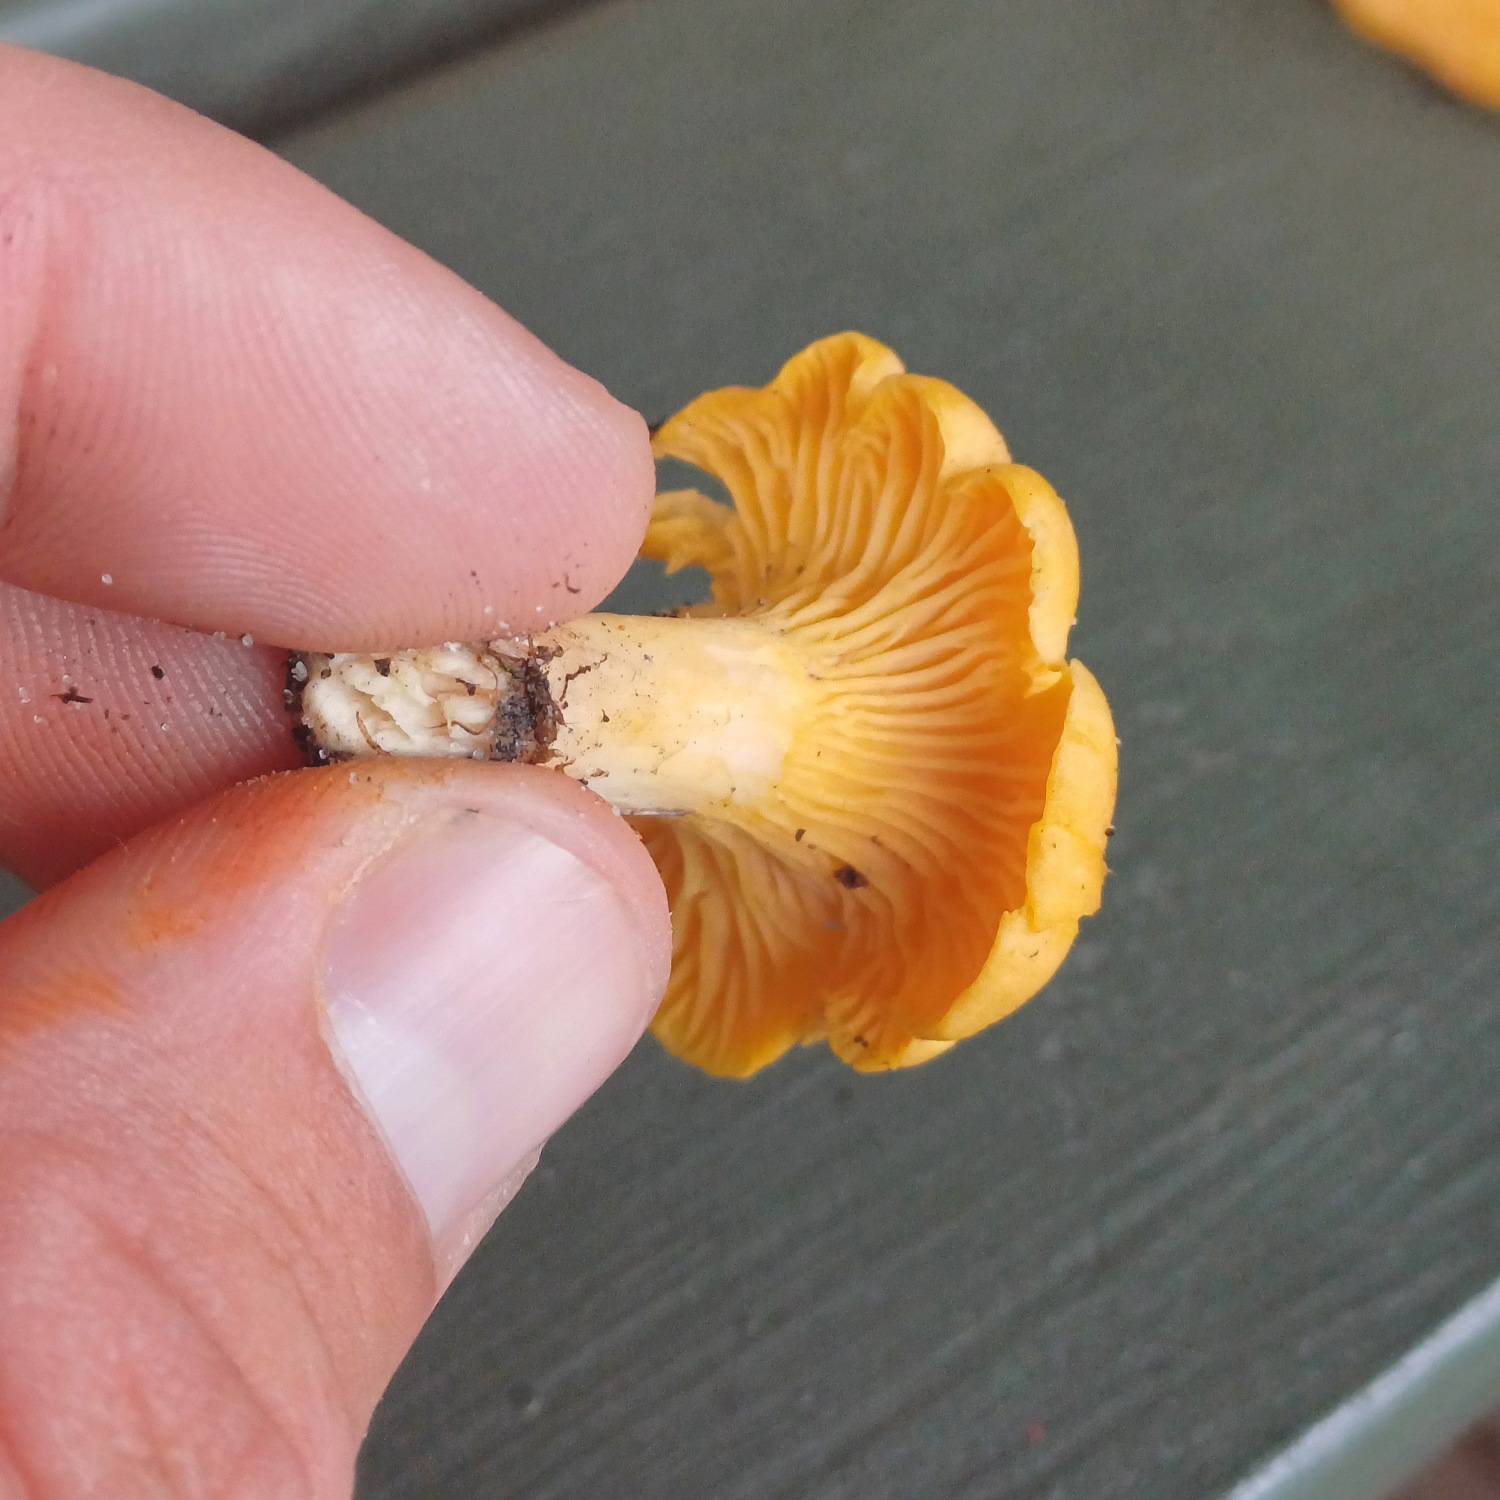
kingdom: Fungi
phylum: Basidiomycota
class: Agaricomycetes
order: Cantharellales
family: Hydnaceae
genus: Cantharellus
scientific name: Cantharellus cibarius
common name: Almindelig kantarel
